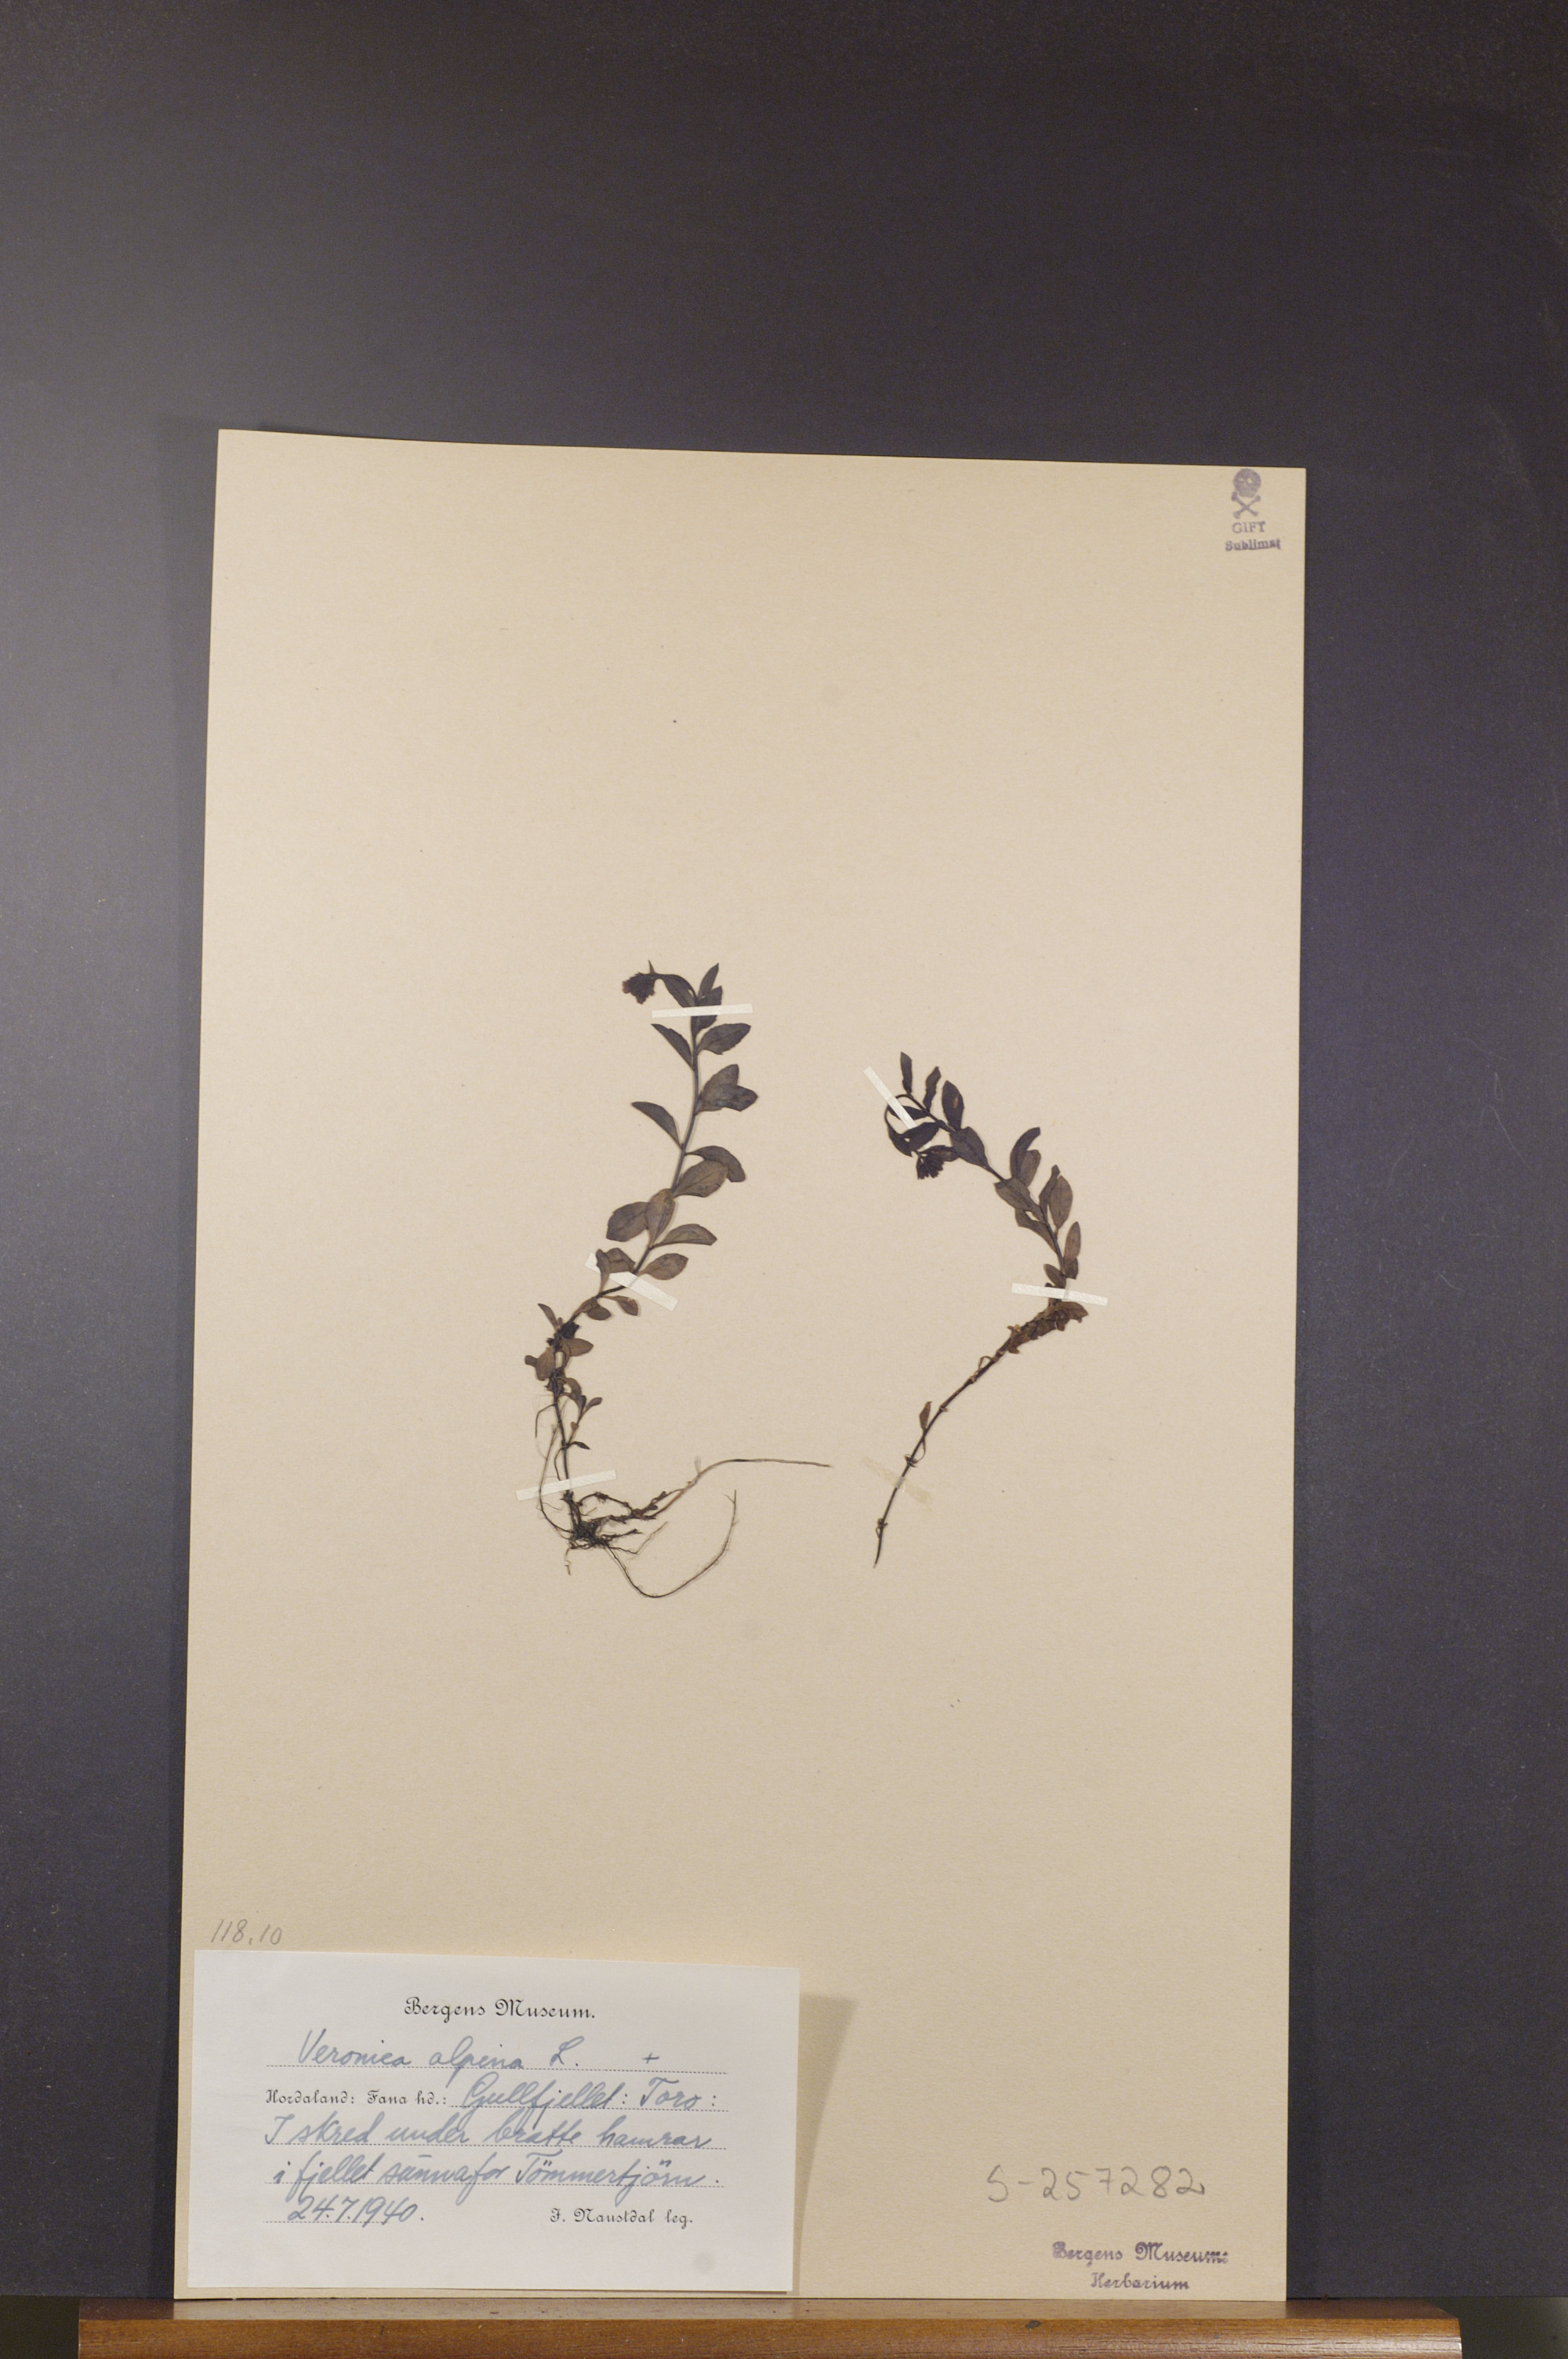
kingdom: Plantae
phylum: Tracheophyta
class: Magnoliopsida
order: Lamiales
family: Plantaginaceae
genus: Veronica
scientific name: Veronica alpina
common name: Alpine speedwell
